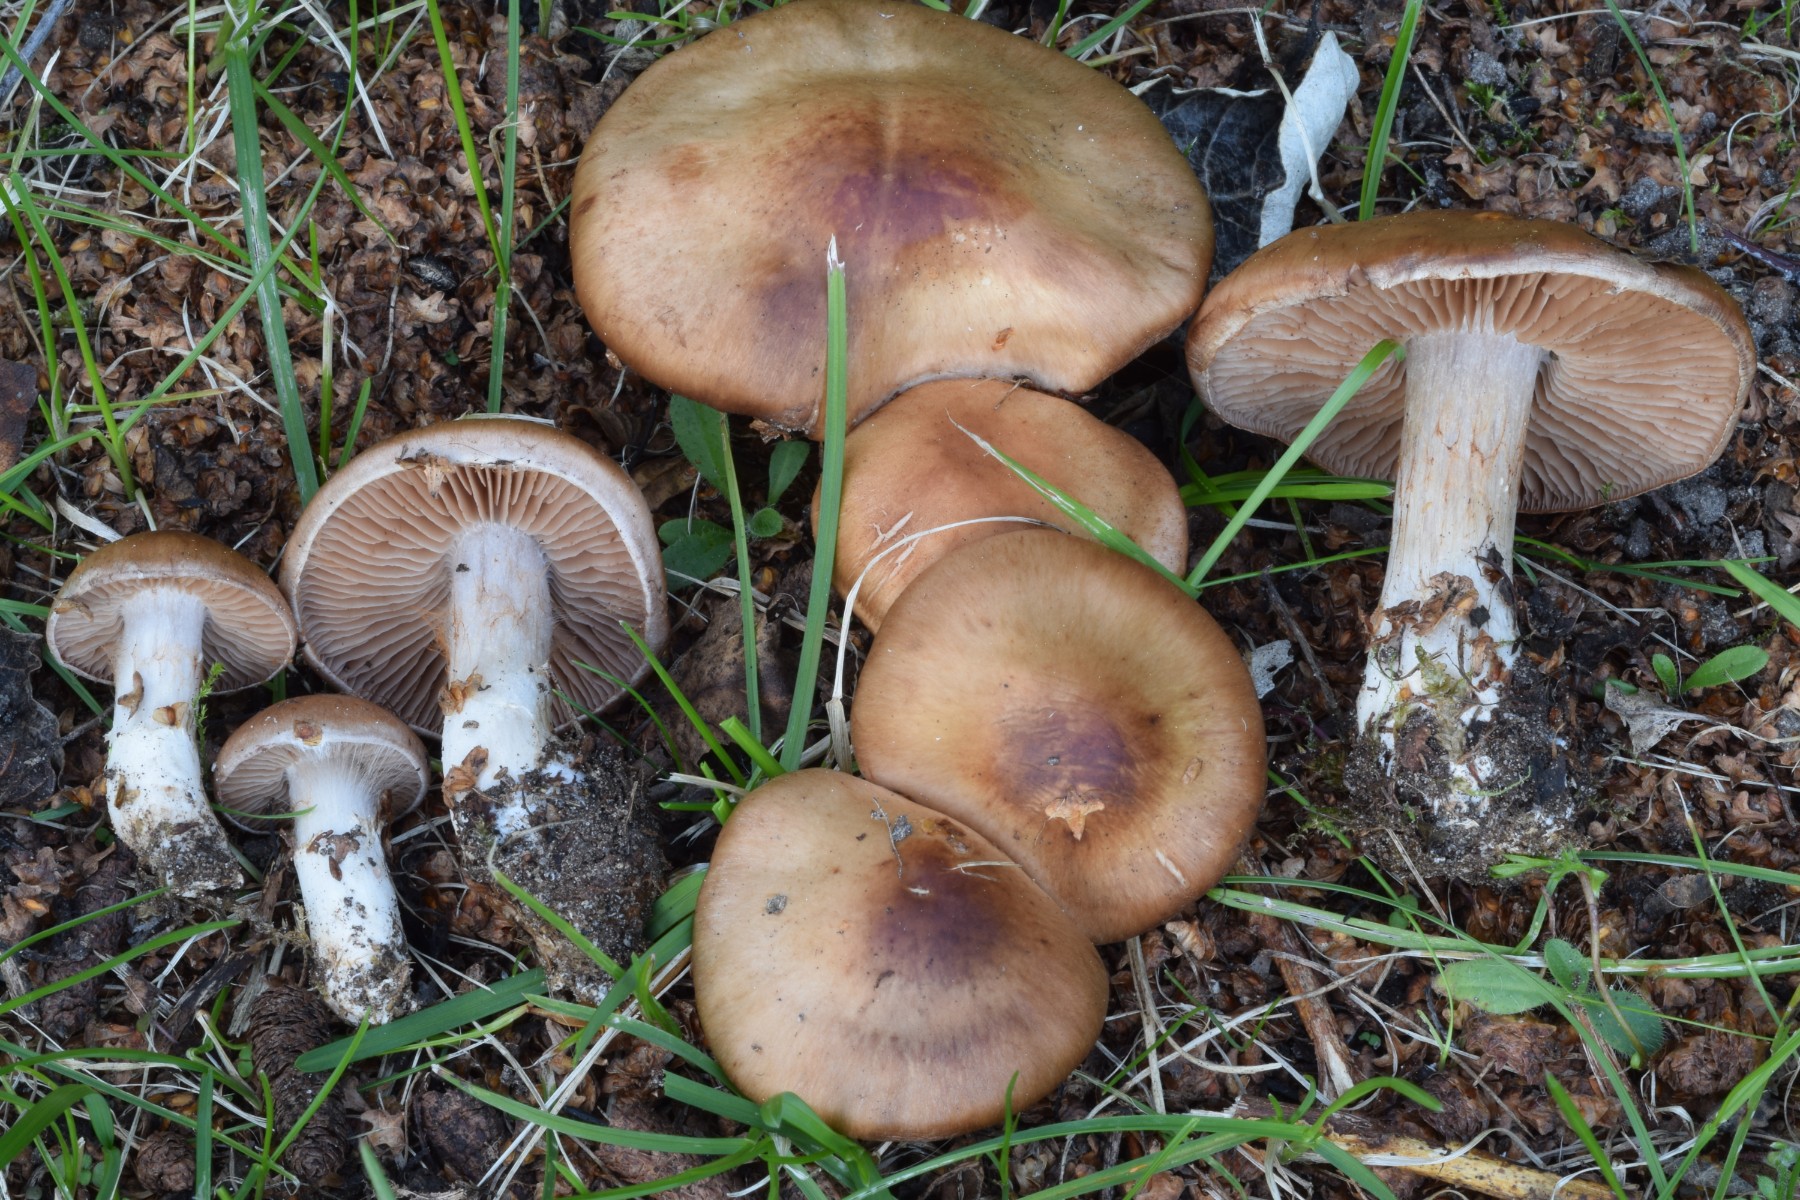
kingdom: Fungi
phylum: Basidiomycota
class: Agaricomycetes
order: Agaricales
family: Cortinariaceae
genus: Cortinarius
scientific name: Cortinarius bivelus
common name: orangebrun slørhat
